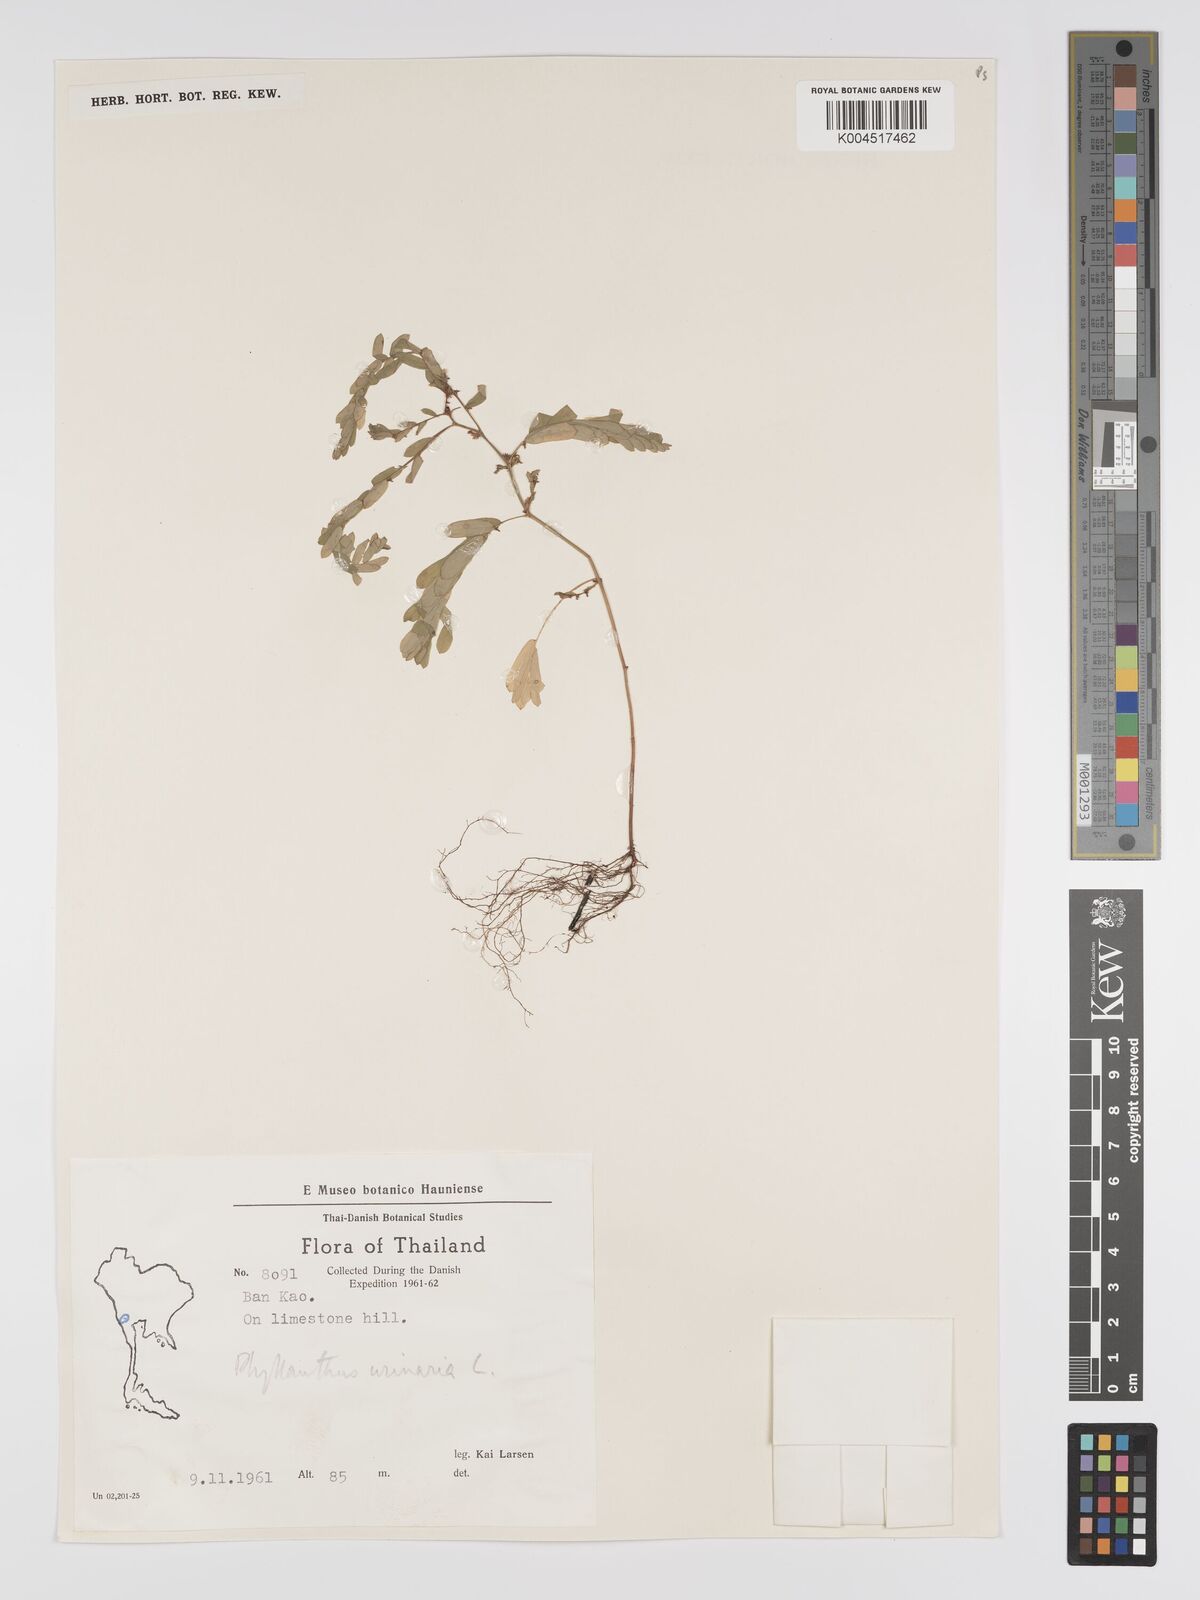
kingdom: Plantae
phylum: Tracheophyta
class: Magnoliopsida
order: Malpighiales
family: Phyllanthaceae
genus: Phyllanthus
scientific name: Phyllanthus urinaria
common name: Chamber bitter
